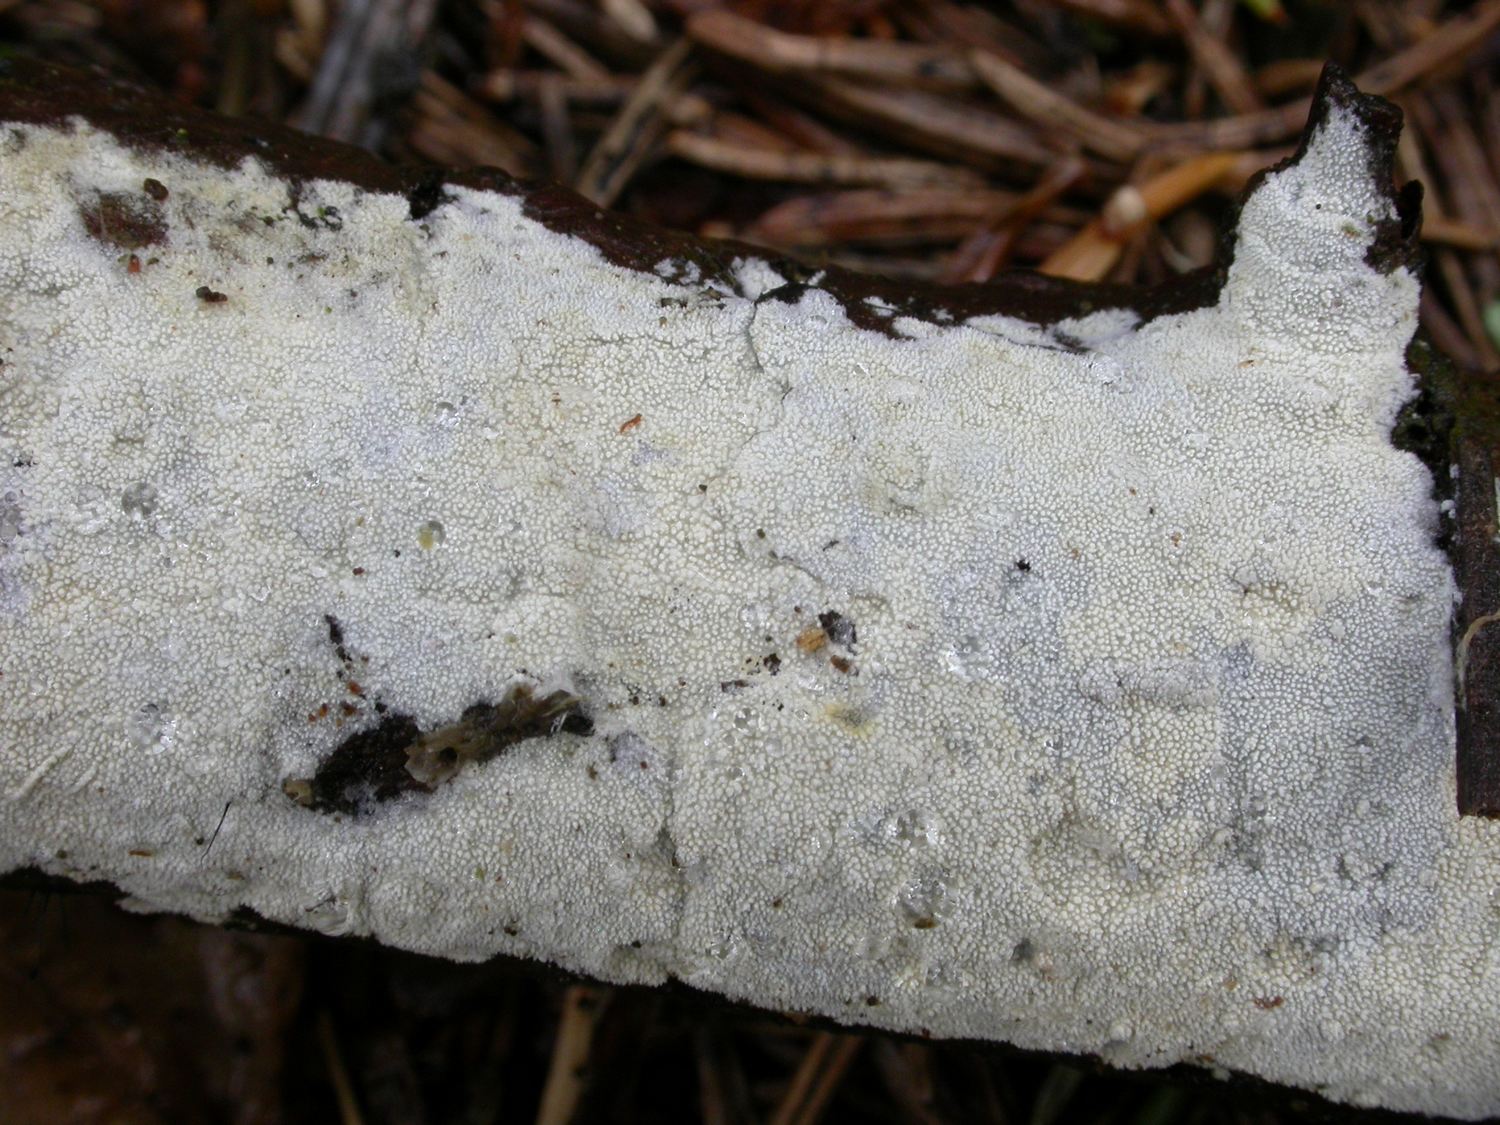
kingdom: Fungi
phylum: Basidiomycota
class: Agaricomycetes
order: Hymenochaetales
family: Schizoporaceae
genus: Xylodon
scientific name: Xylodon nesporii
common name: fintandet tandsvamp
